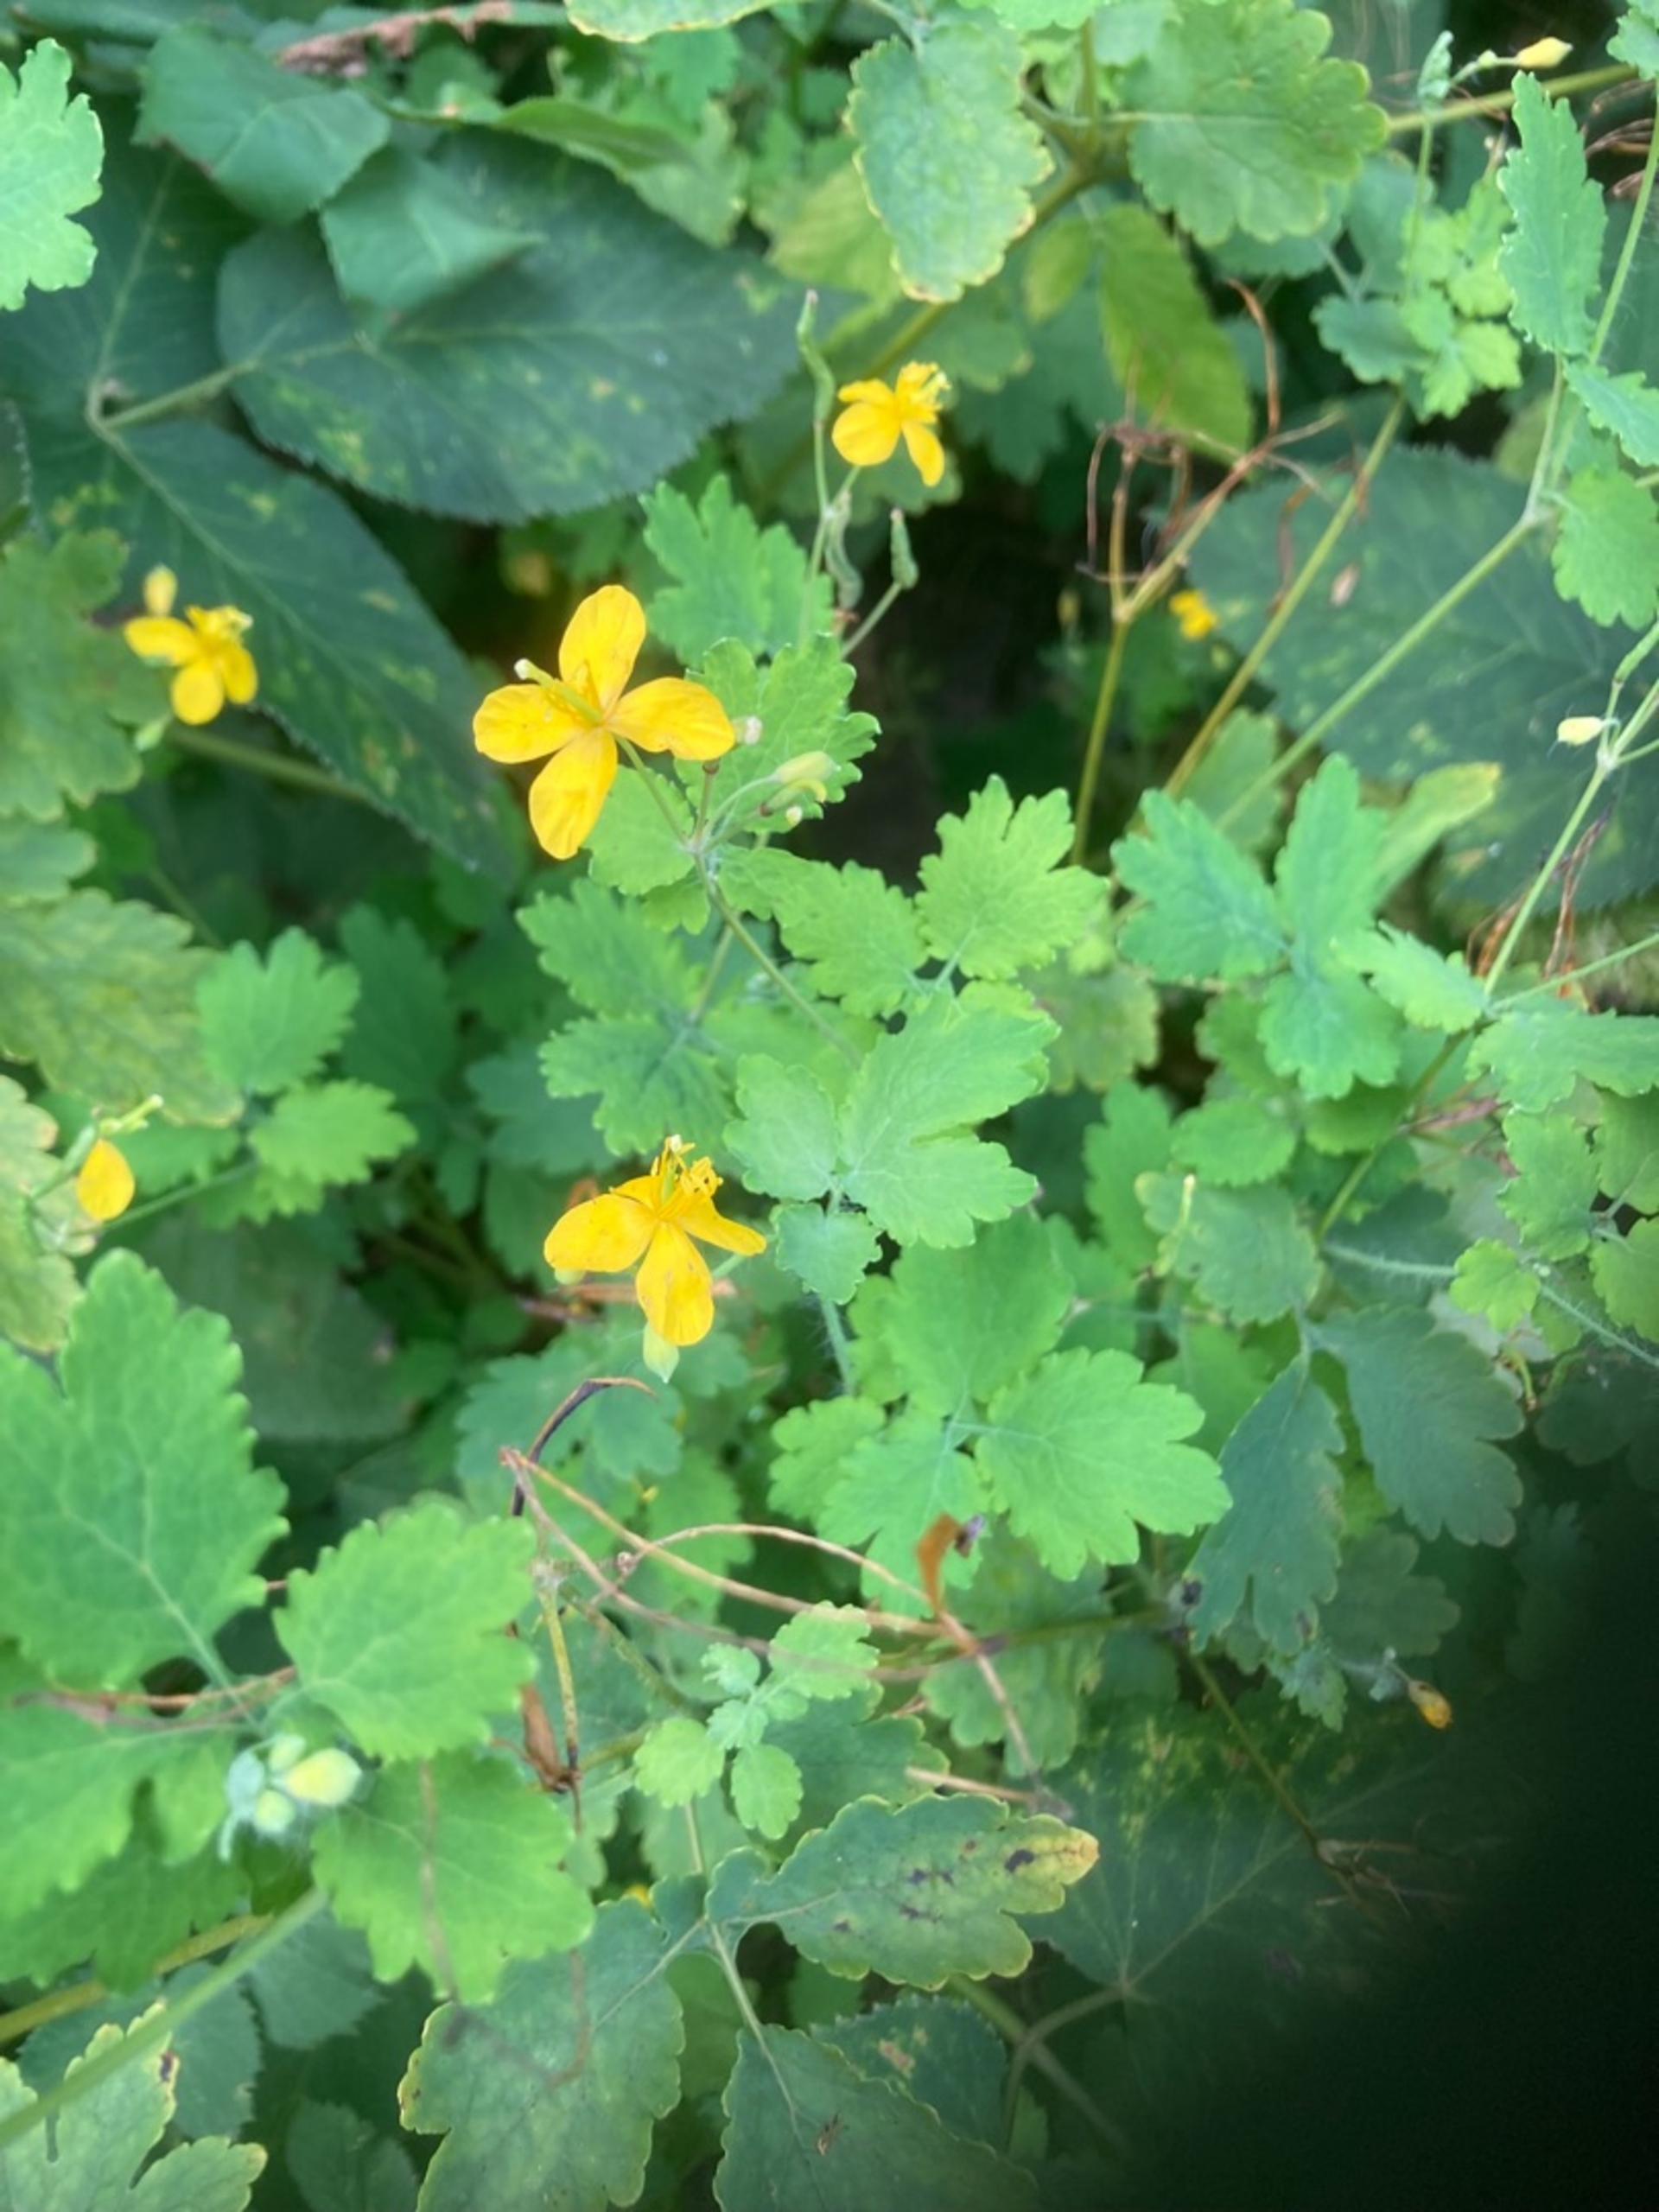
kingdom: Plantae
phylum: Tracheophyta
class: Magnoliopsida
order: Ranunculales
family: Papaveraceae
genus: Chelidonium
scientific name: Chelidonium majus
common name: Svaleurt
